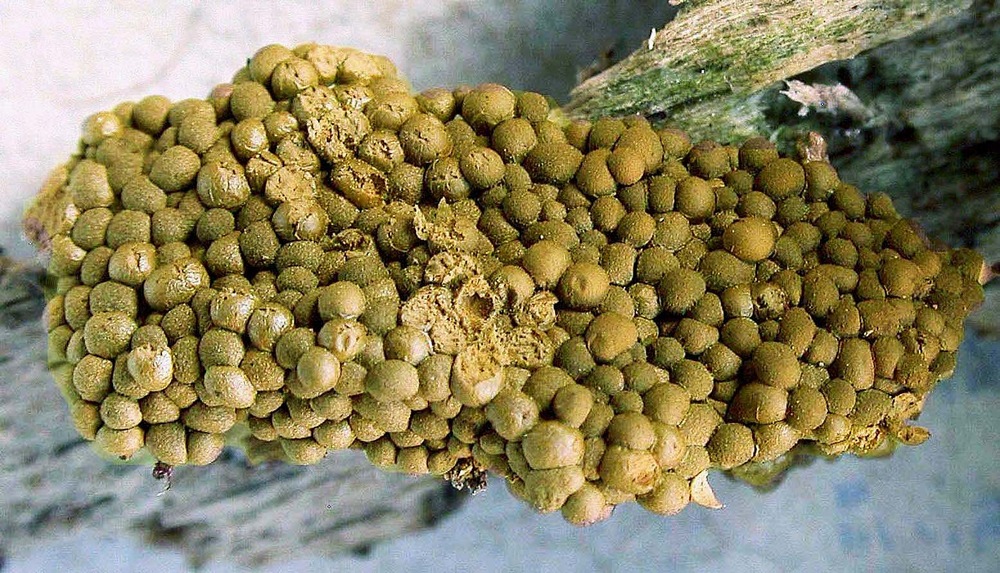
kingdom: Protozoa
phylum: Mycetozoa
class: Myxomycetes
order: Trichiales
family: Arcyriaceae
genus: Arcyodes
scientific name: Arcyodes incarnata
